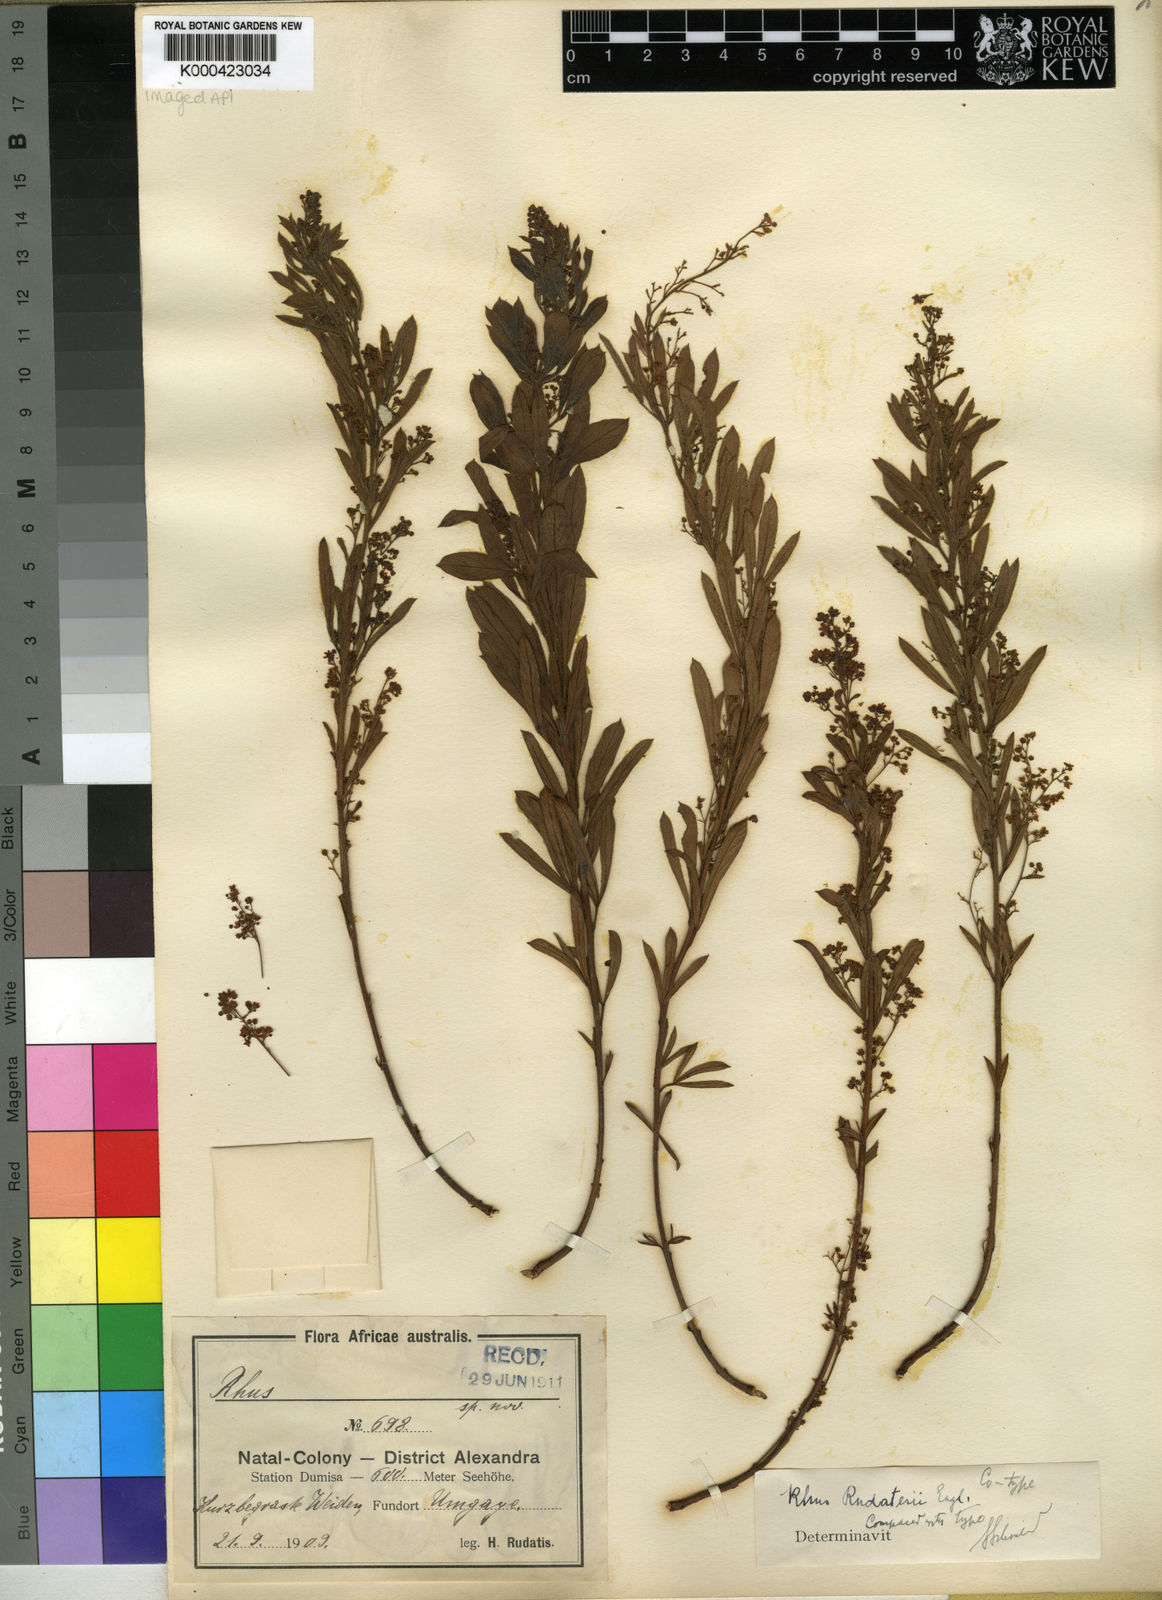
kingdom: Plantae
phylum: Tracheophyta
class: Magnoliopsida
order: Sapindales
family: Anacardiaceae
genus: Searsia
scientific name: Searsia rudatisii
